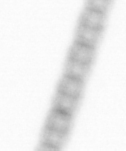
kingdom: Chromista
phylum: Ochrophyta
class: Bacillariophyceae
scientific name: Bacillariophyceae
